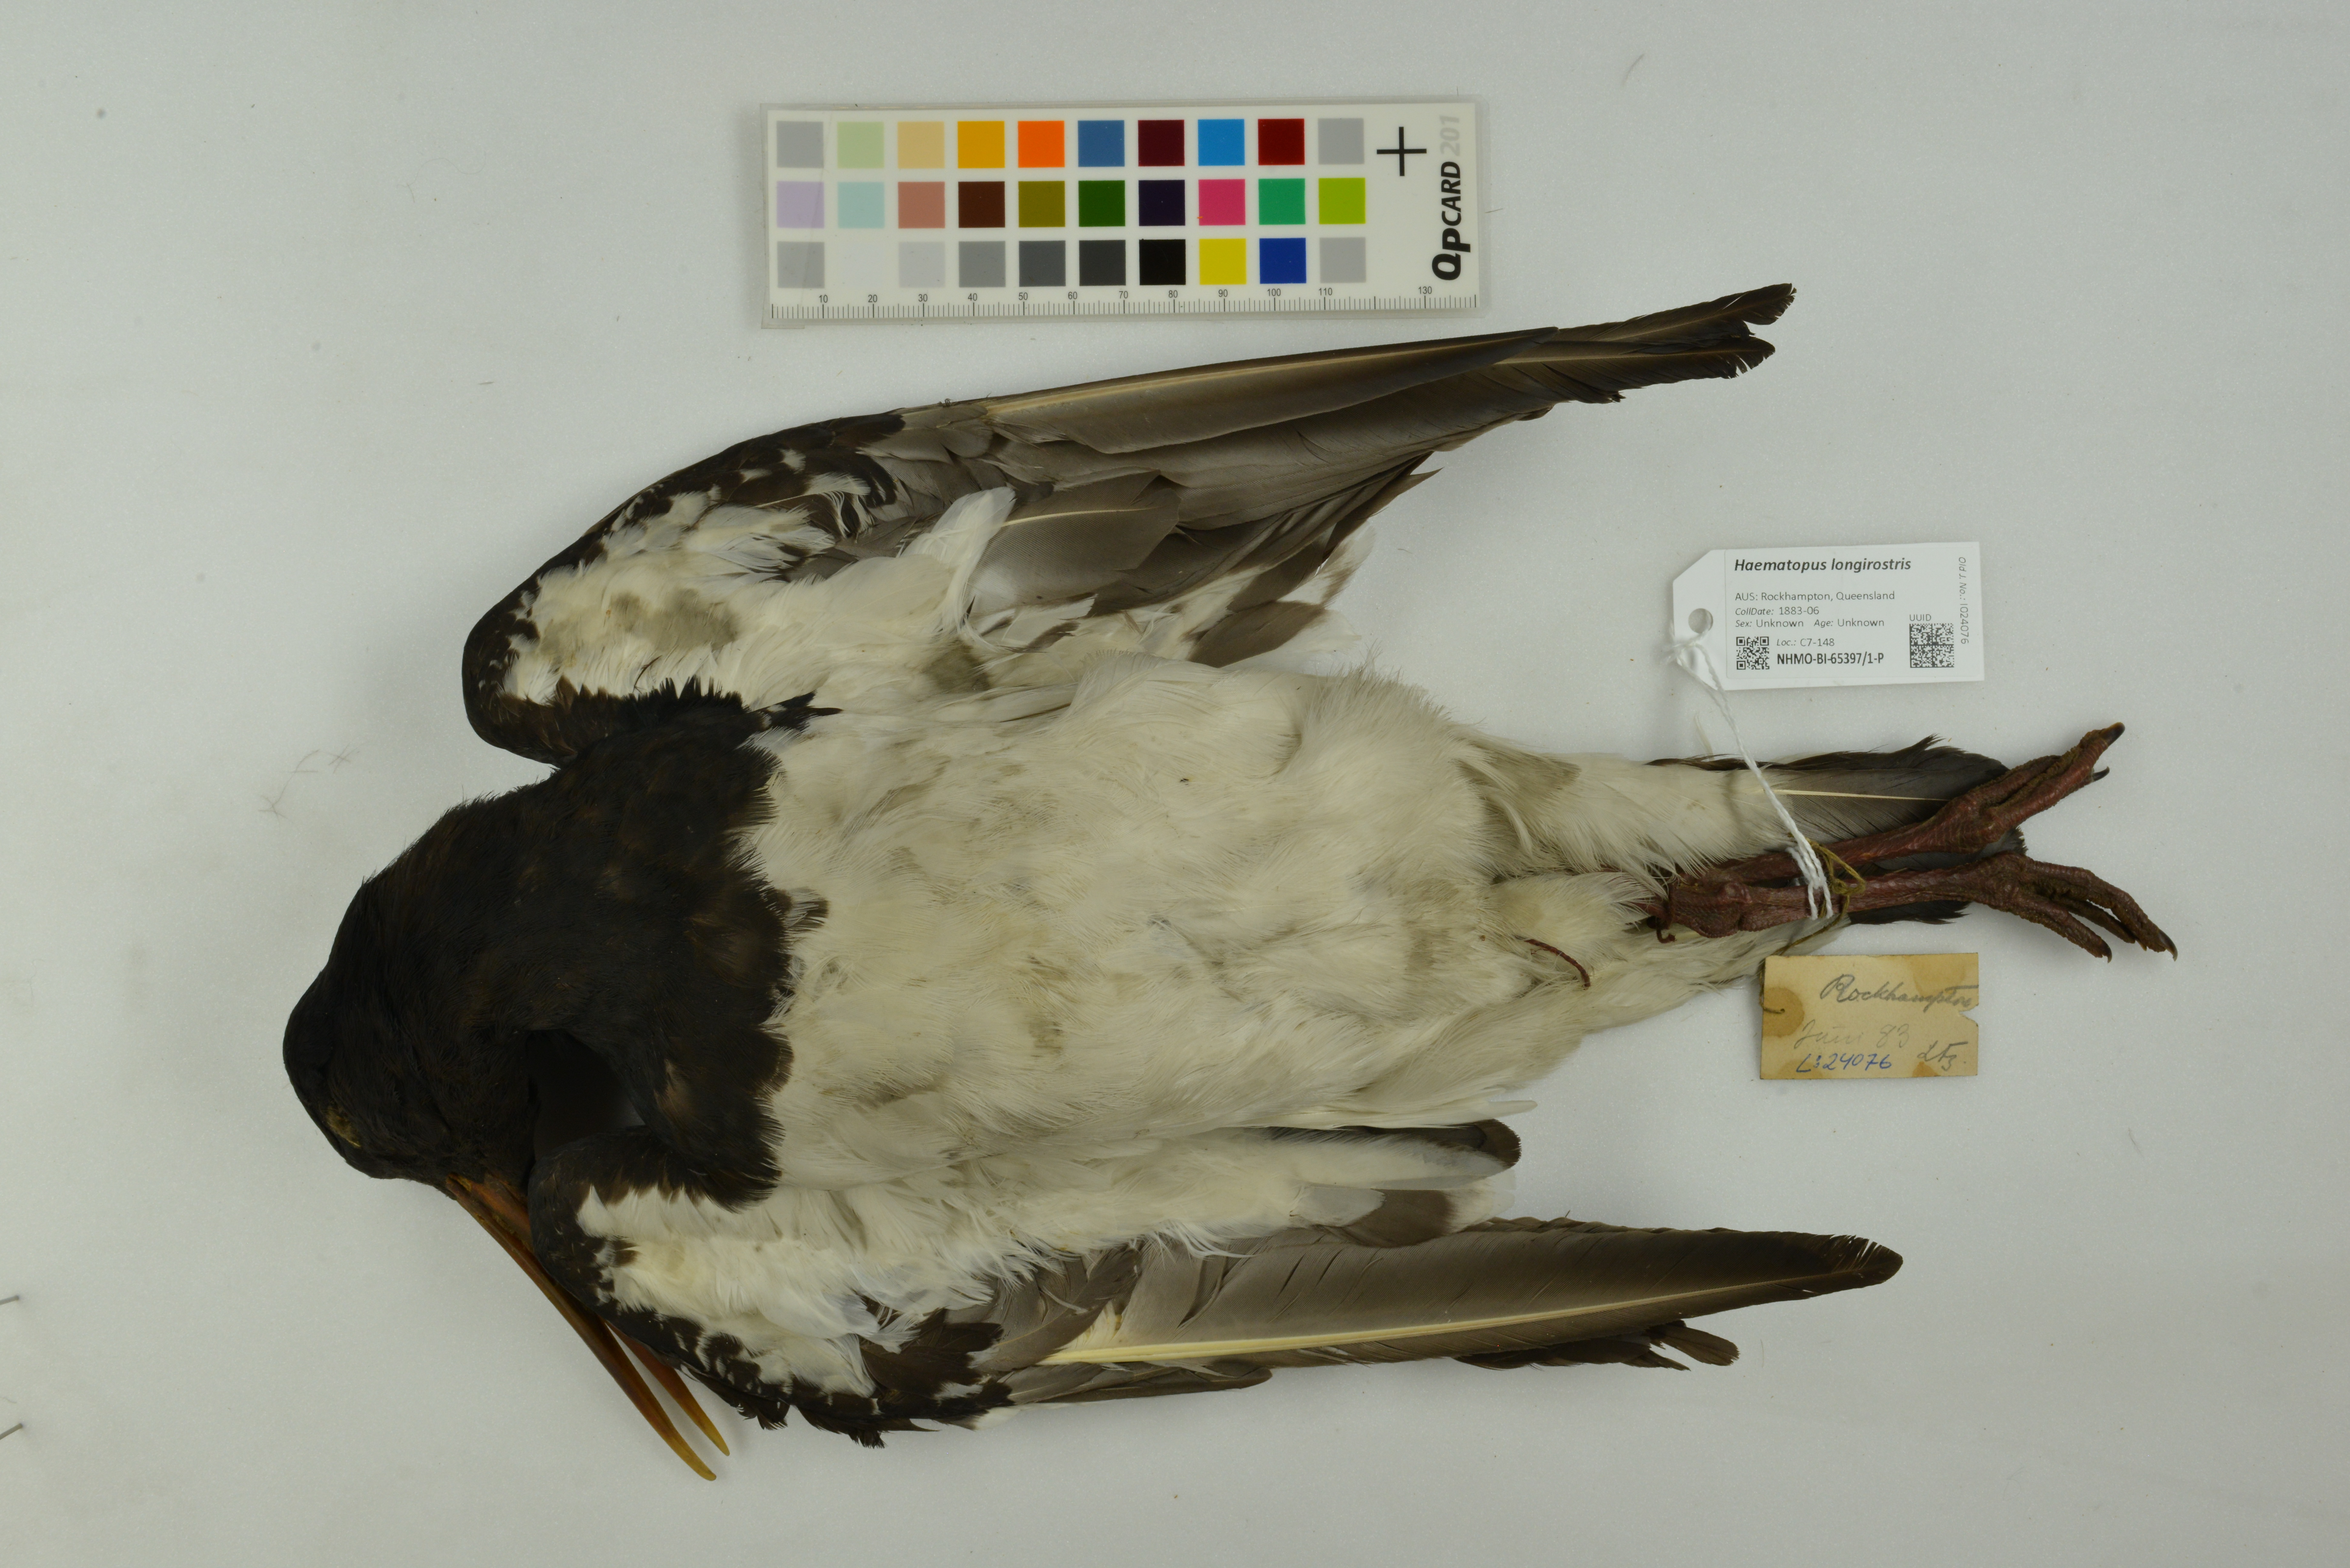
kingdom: Animalia
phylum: Chordata
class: Aves
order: Charadriiformes
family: Haematopodidae
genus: Haematopus
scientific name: Haematopus longirostris
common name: Pied oystercatcher
